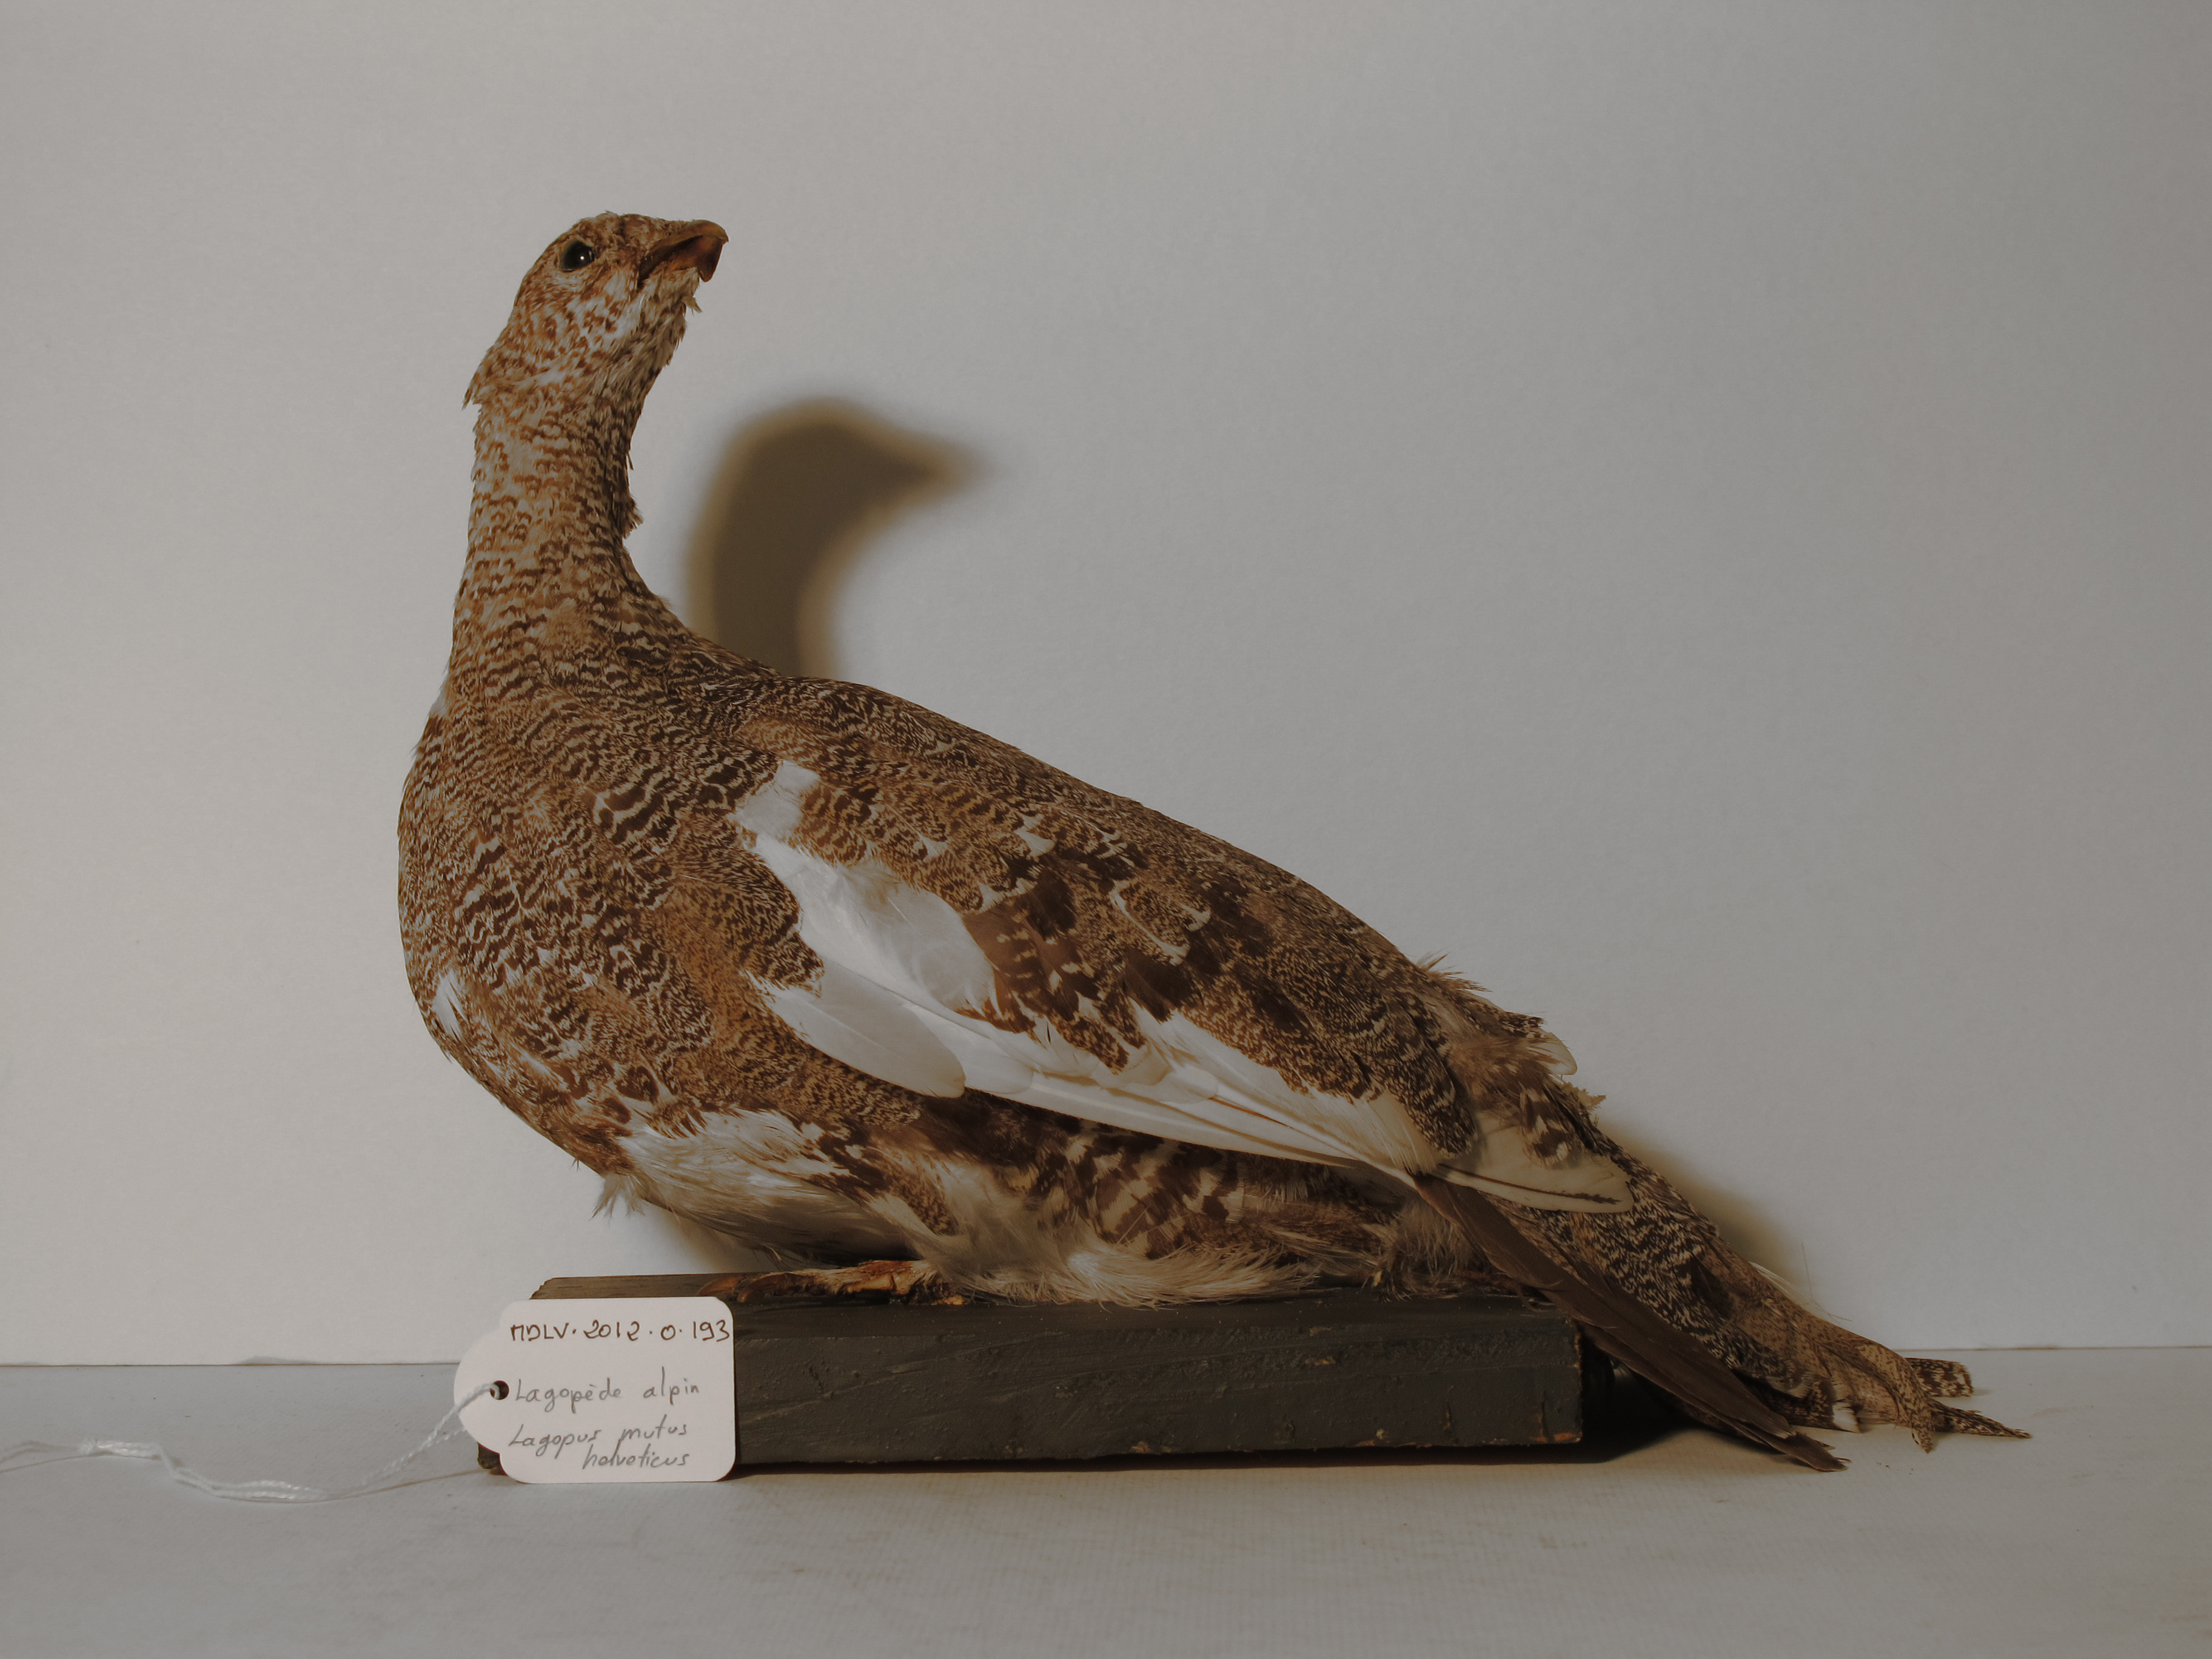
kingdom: Animalia
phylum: Chordata
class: Aves
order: Galliformes
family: Phasianidae
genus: Lagopus
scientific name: Lagopus muta
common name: Rock Ptarmigan
